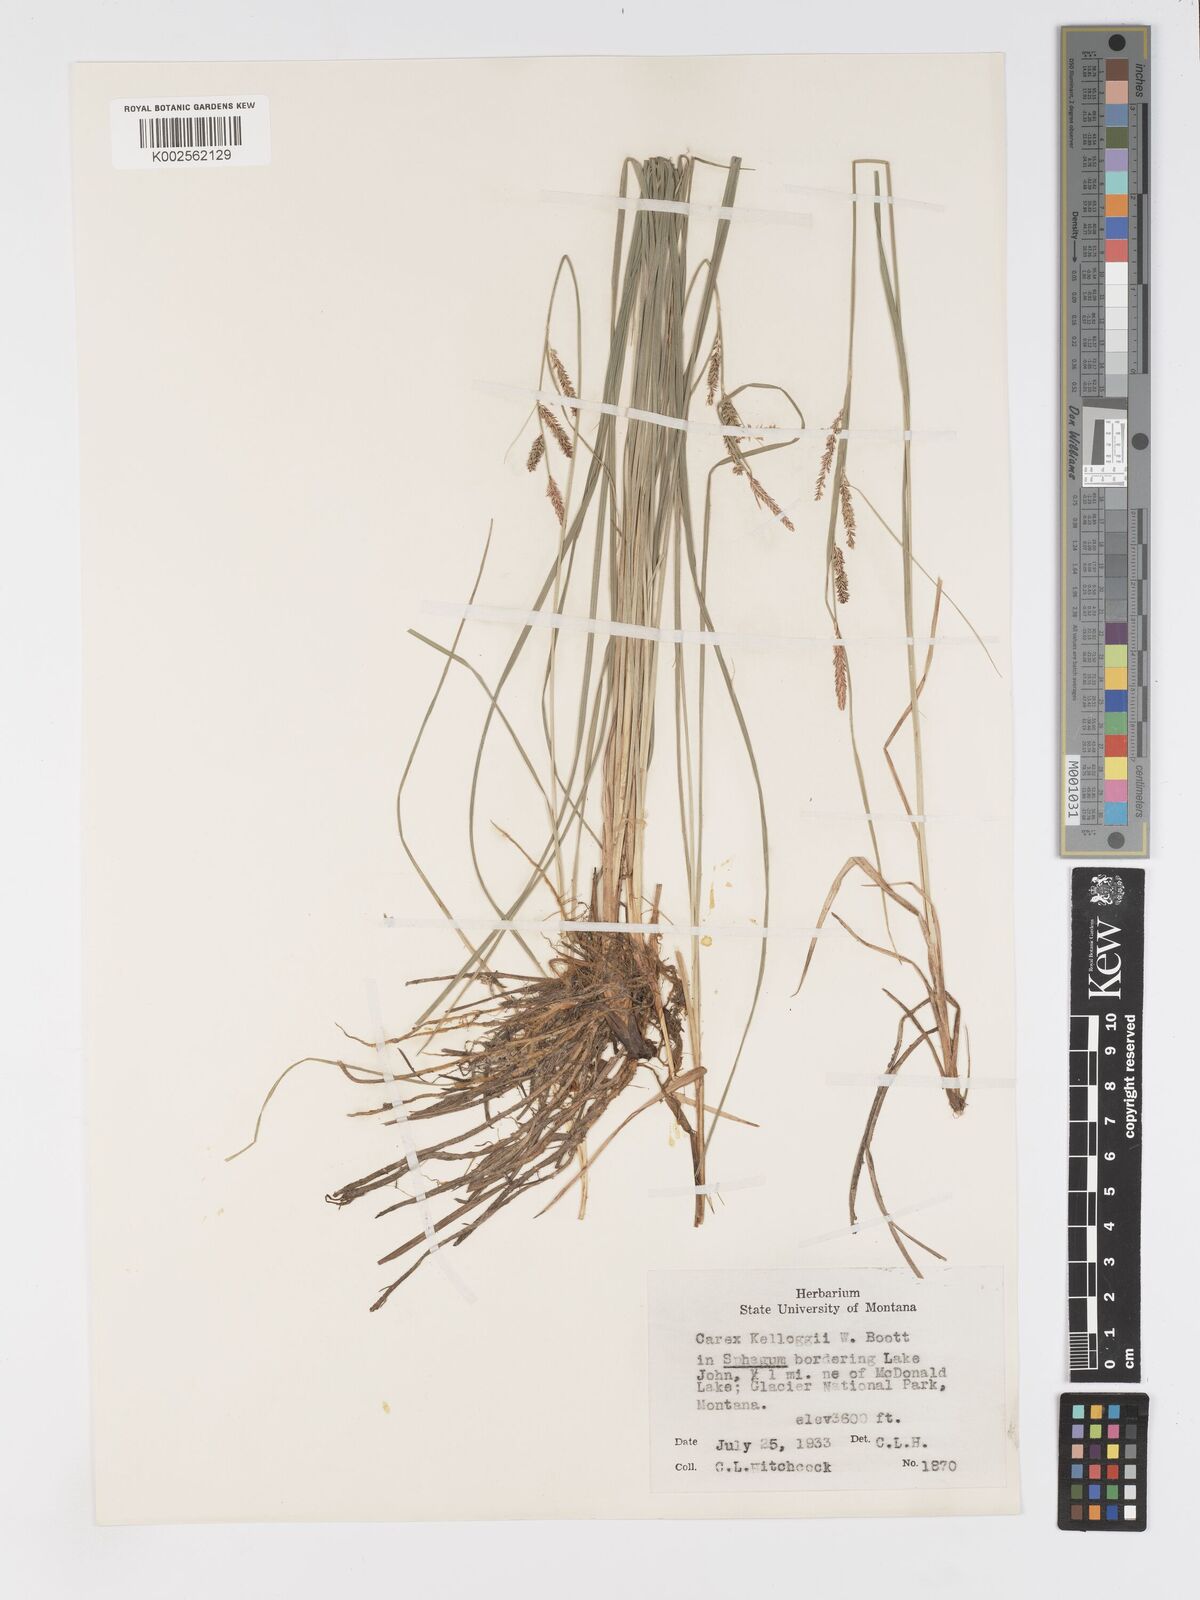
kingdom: Plantae
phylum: Tracheophyta
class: Liliopsida
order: Poales
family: Cyperaceae
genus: Carex
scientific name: Carex kelloggii
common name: Kellogg's sedge
